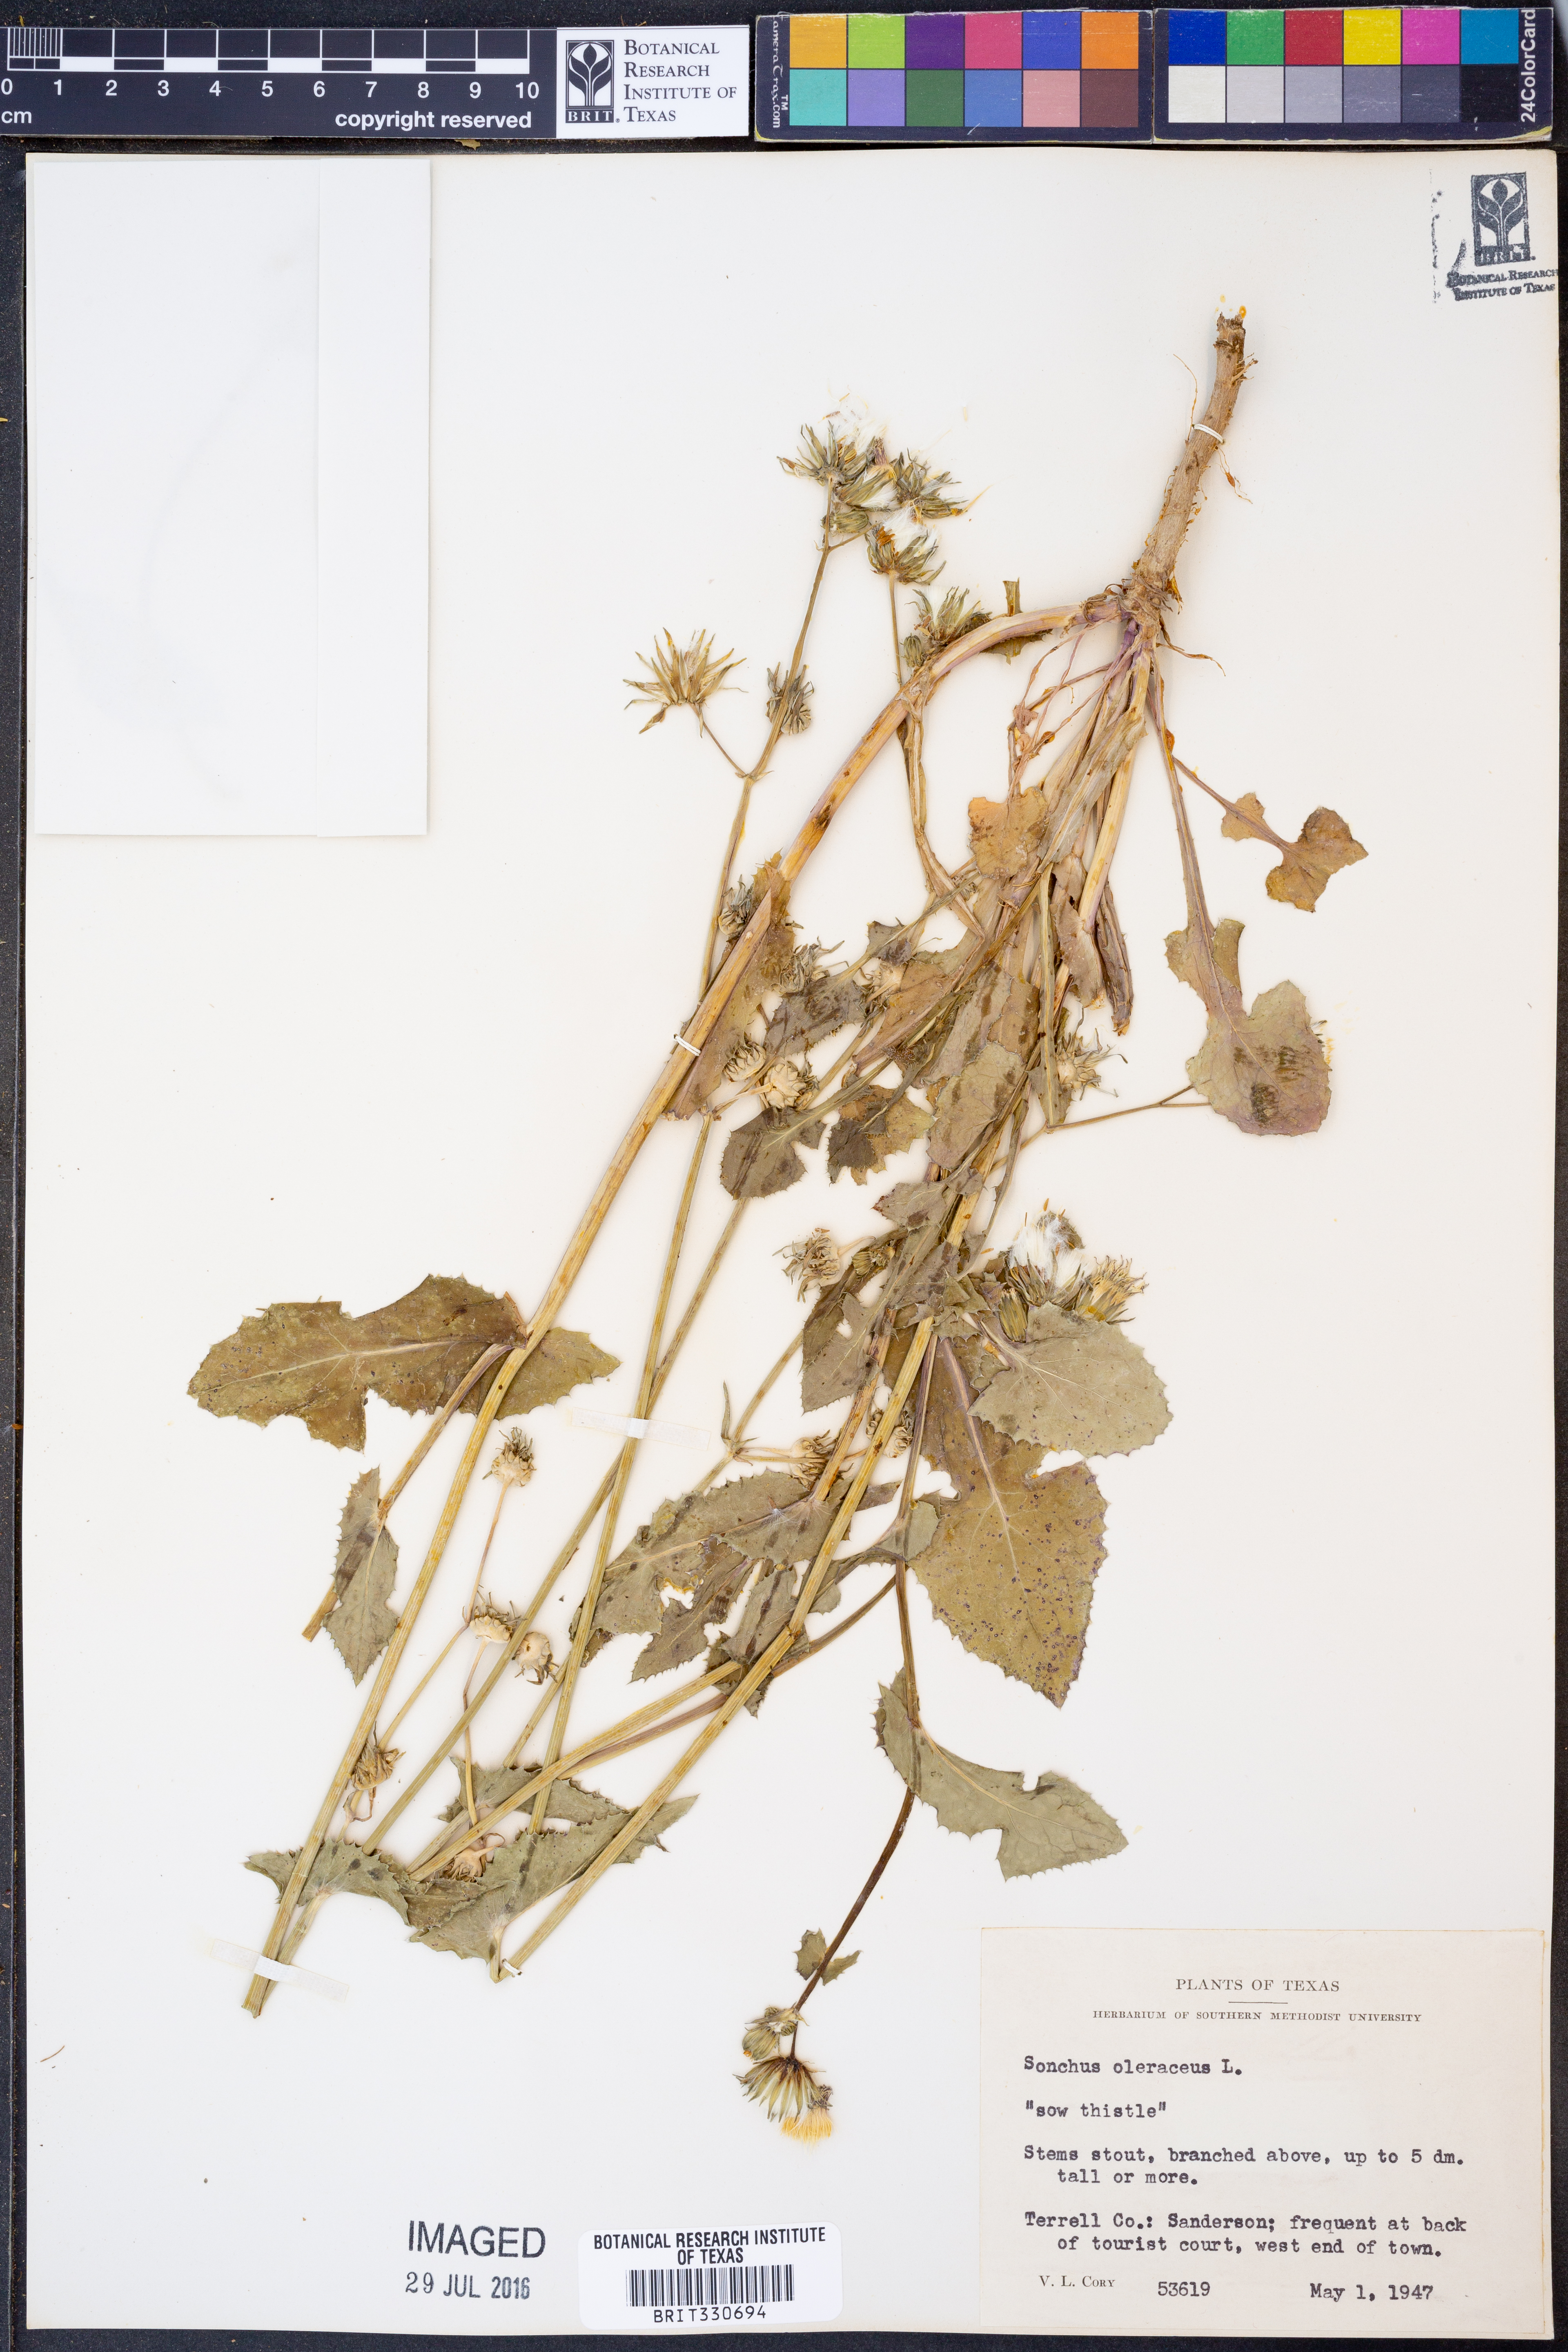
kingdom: Plantae
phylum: Tracheophyta
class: Magnoliopsida
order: Asterales
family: Asteraceae
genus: Sonchus
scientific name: Sonchus oleraceus
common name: Common sowthistle
